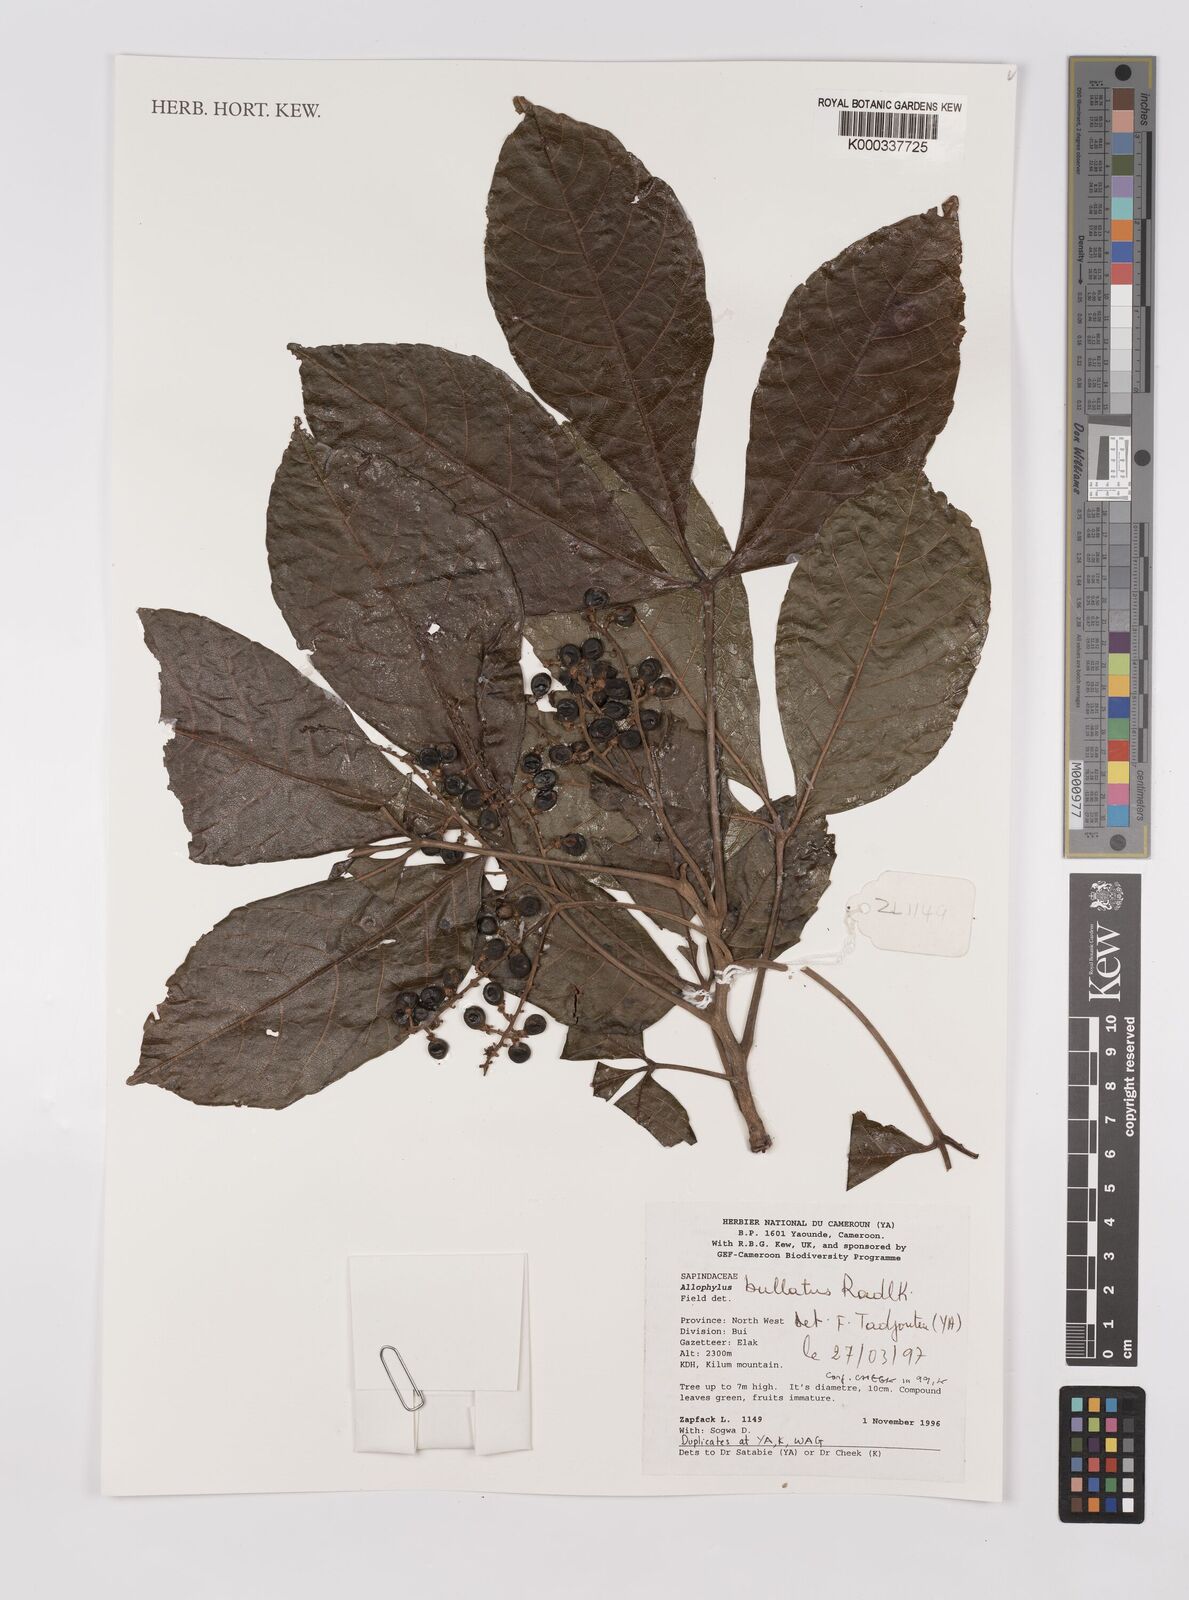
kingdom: Plantae
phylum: Tracheophyta
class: Magnoliopsida
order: Sapindales
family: Sapindaceae
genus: Allophylus
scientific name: Allophylus bullatus
